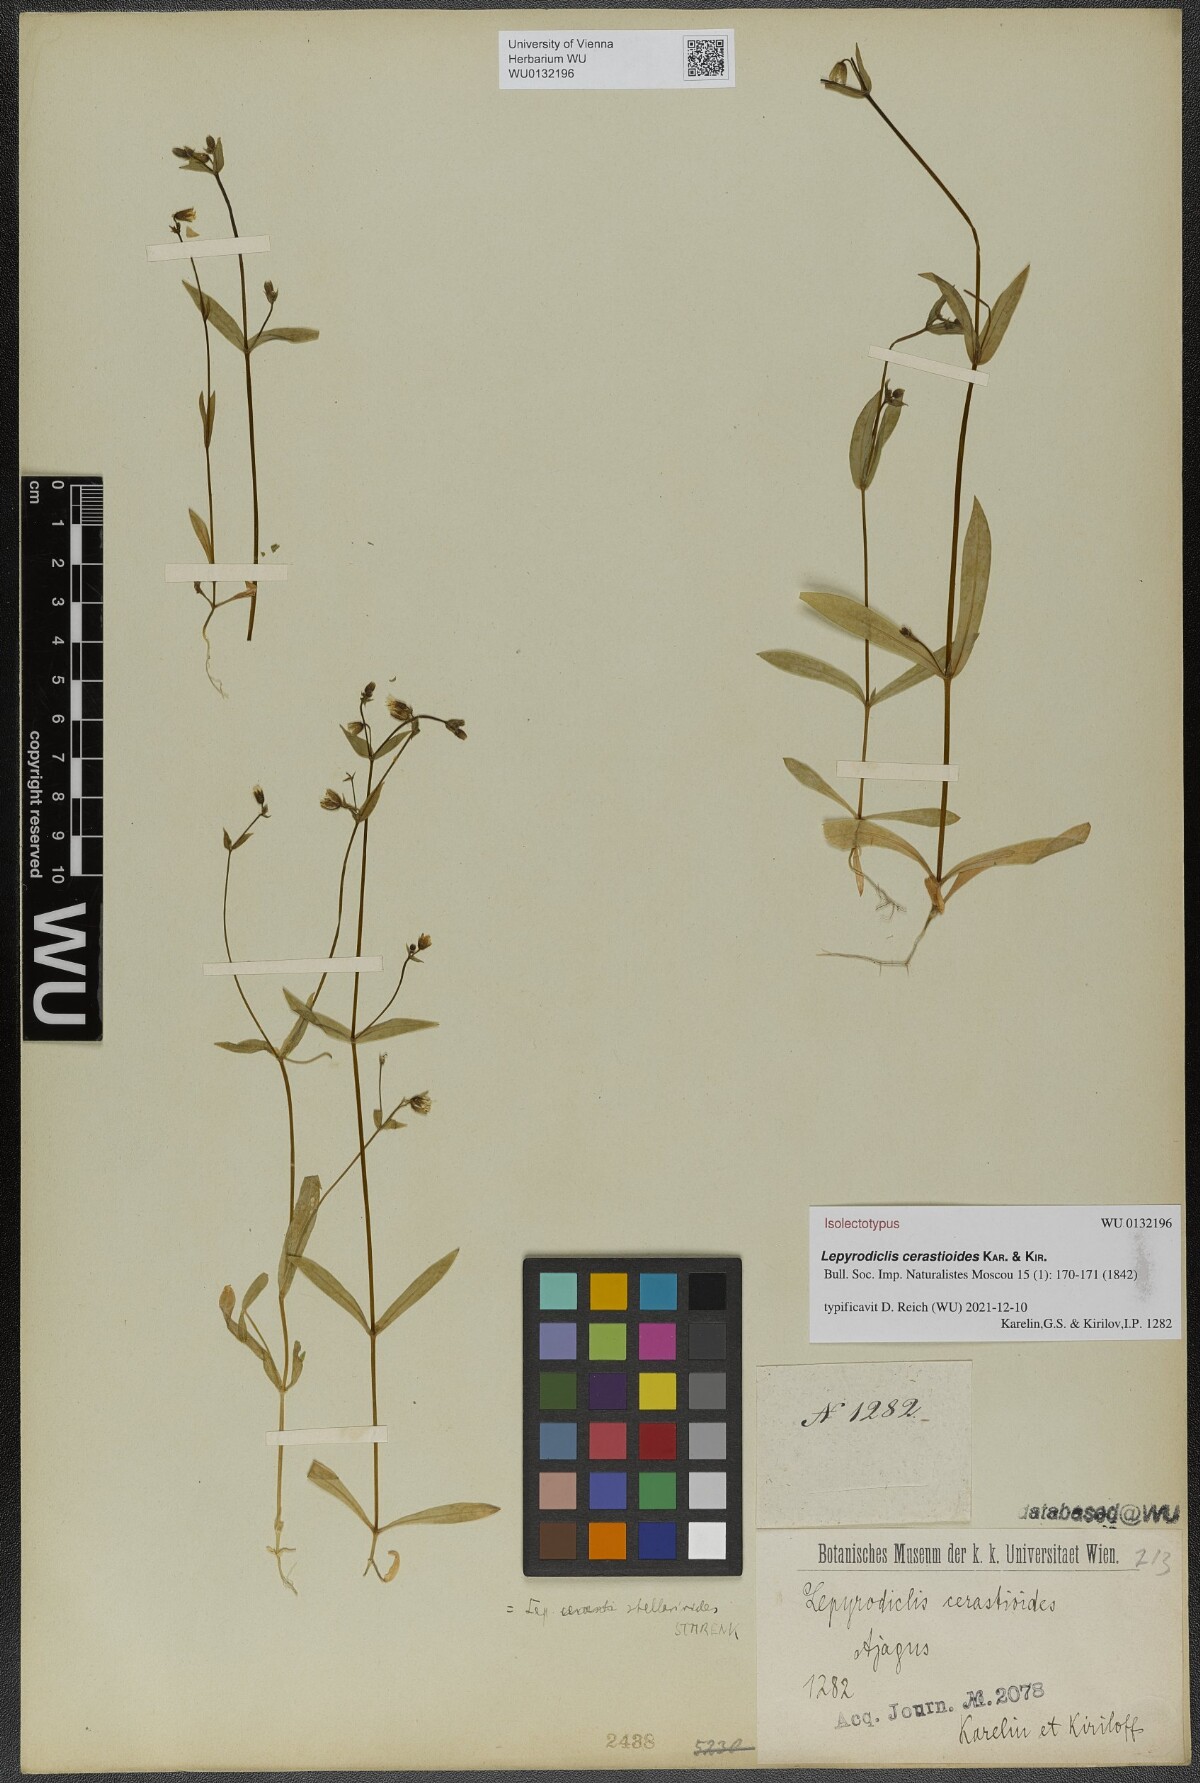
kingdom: Plantae
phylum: Tracheophyta
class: Magnoliopsida
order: Caryophyllales
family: Caryophyllaceae
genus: Lepyrodiclis
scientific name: Lepyrodiclis stellarioides
